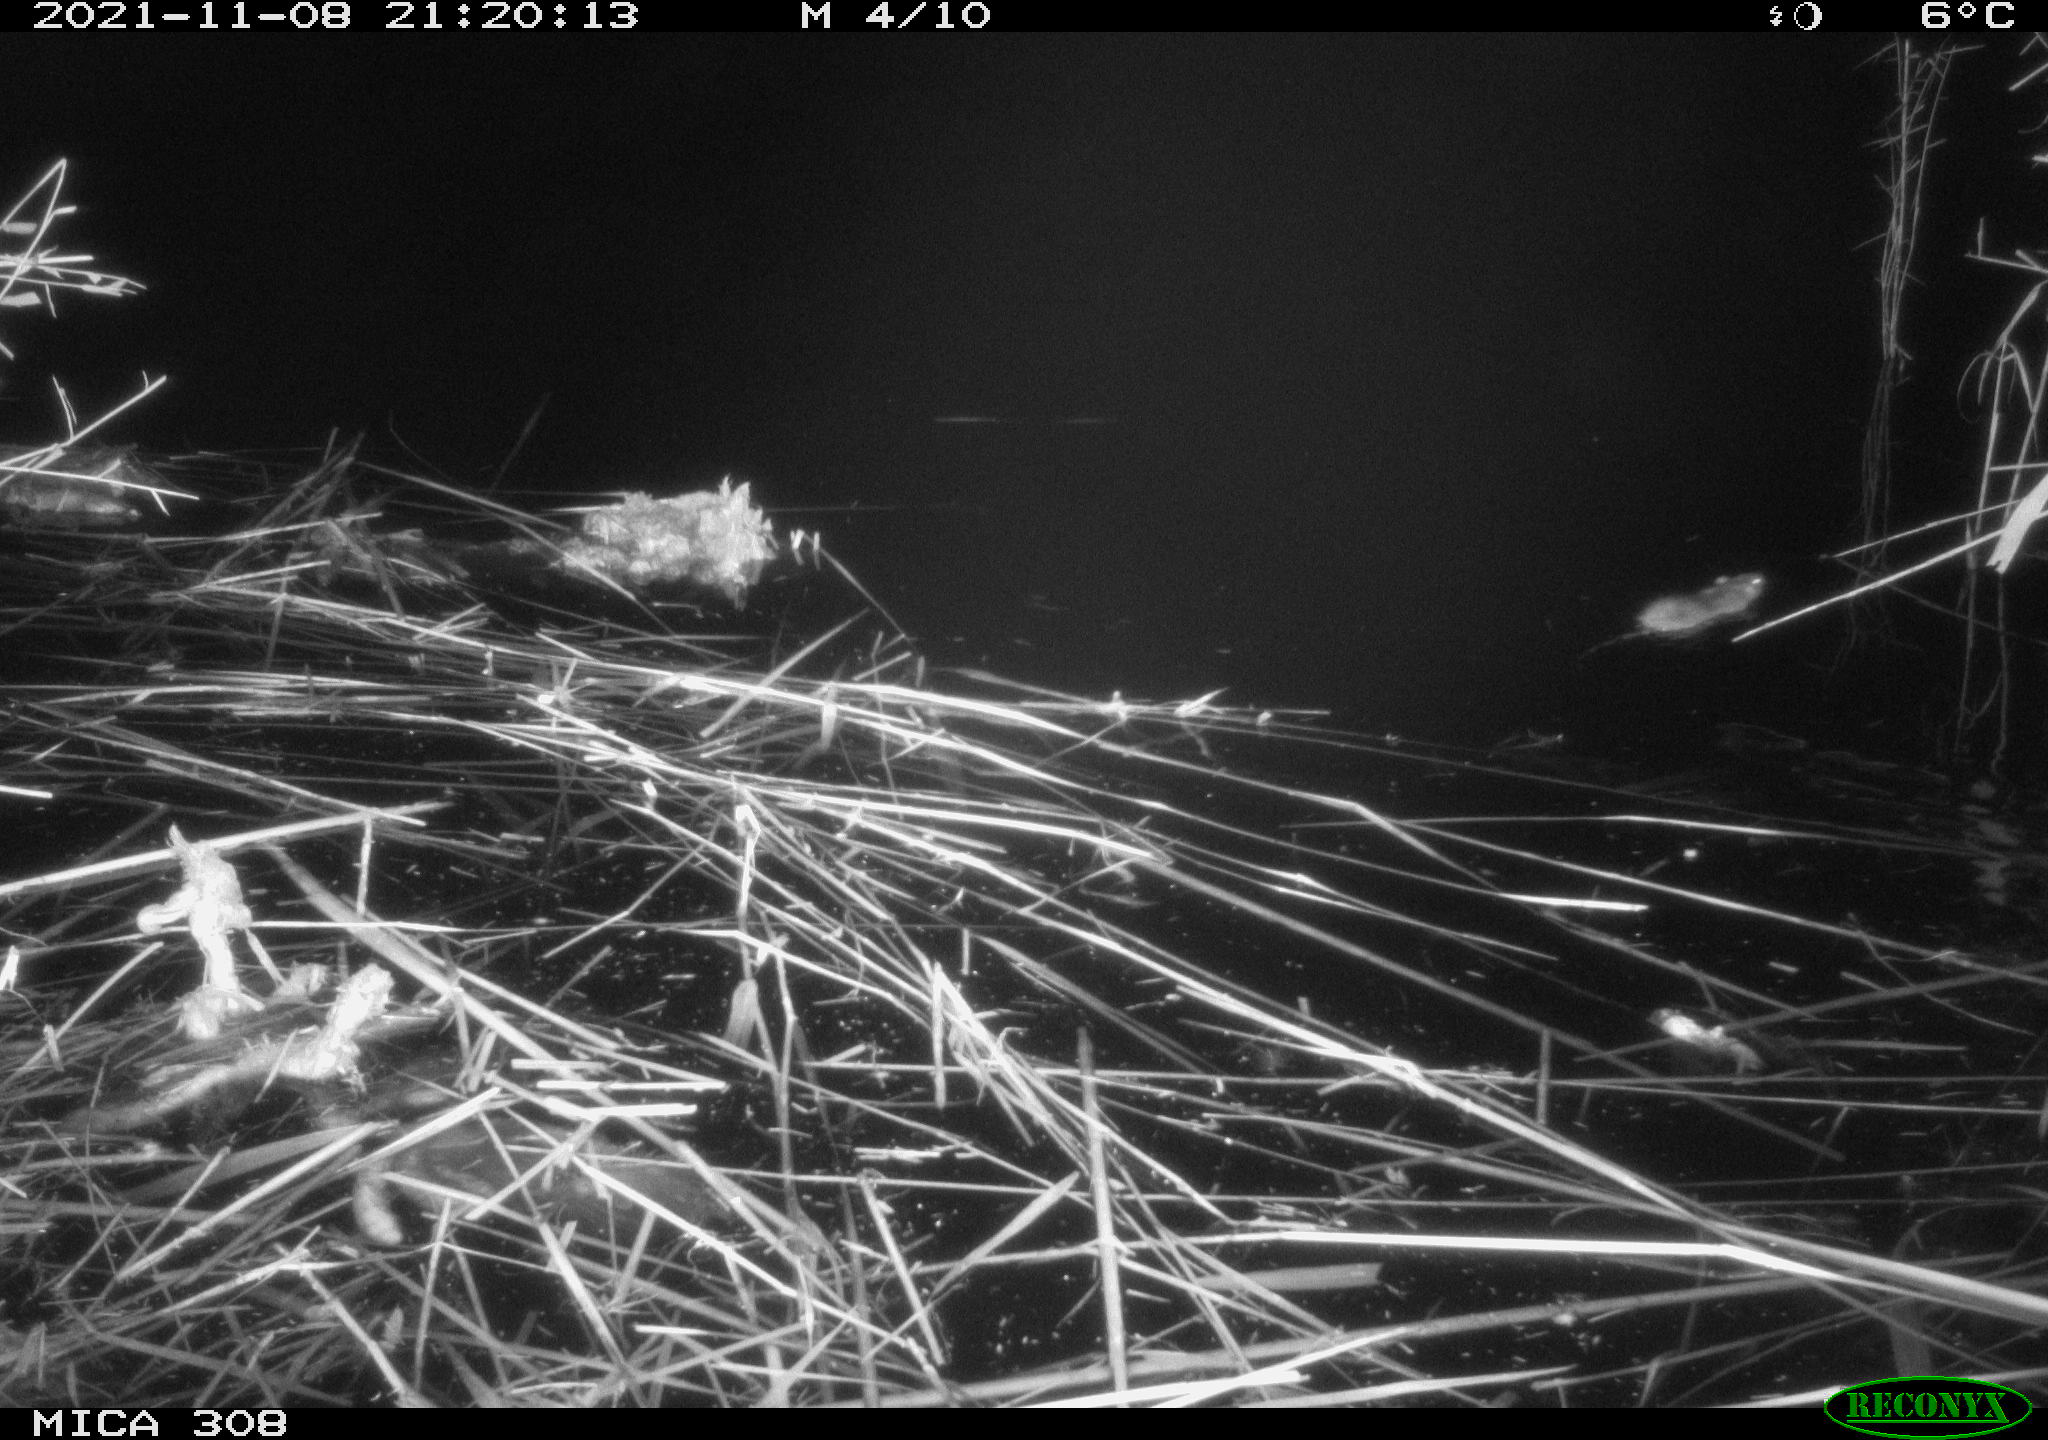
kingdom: Animalia
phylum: Chordata
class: Mammalia
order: Rodentia
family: Muridae
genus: Rattus
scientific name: Rattus norvegicus
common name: Brown rat
